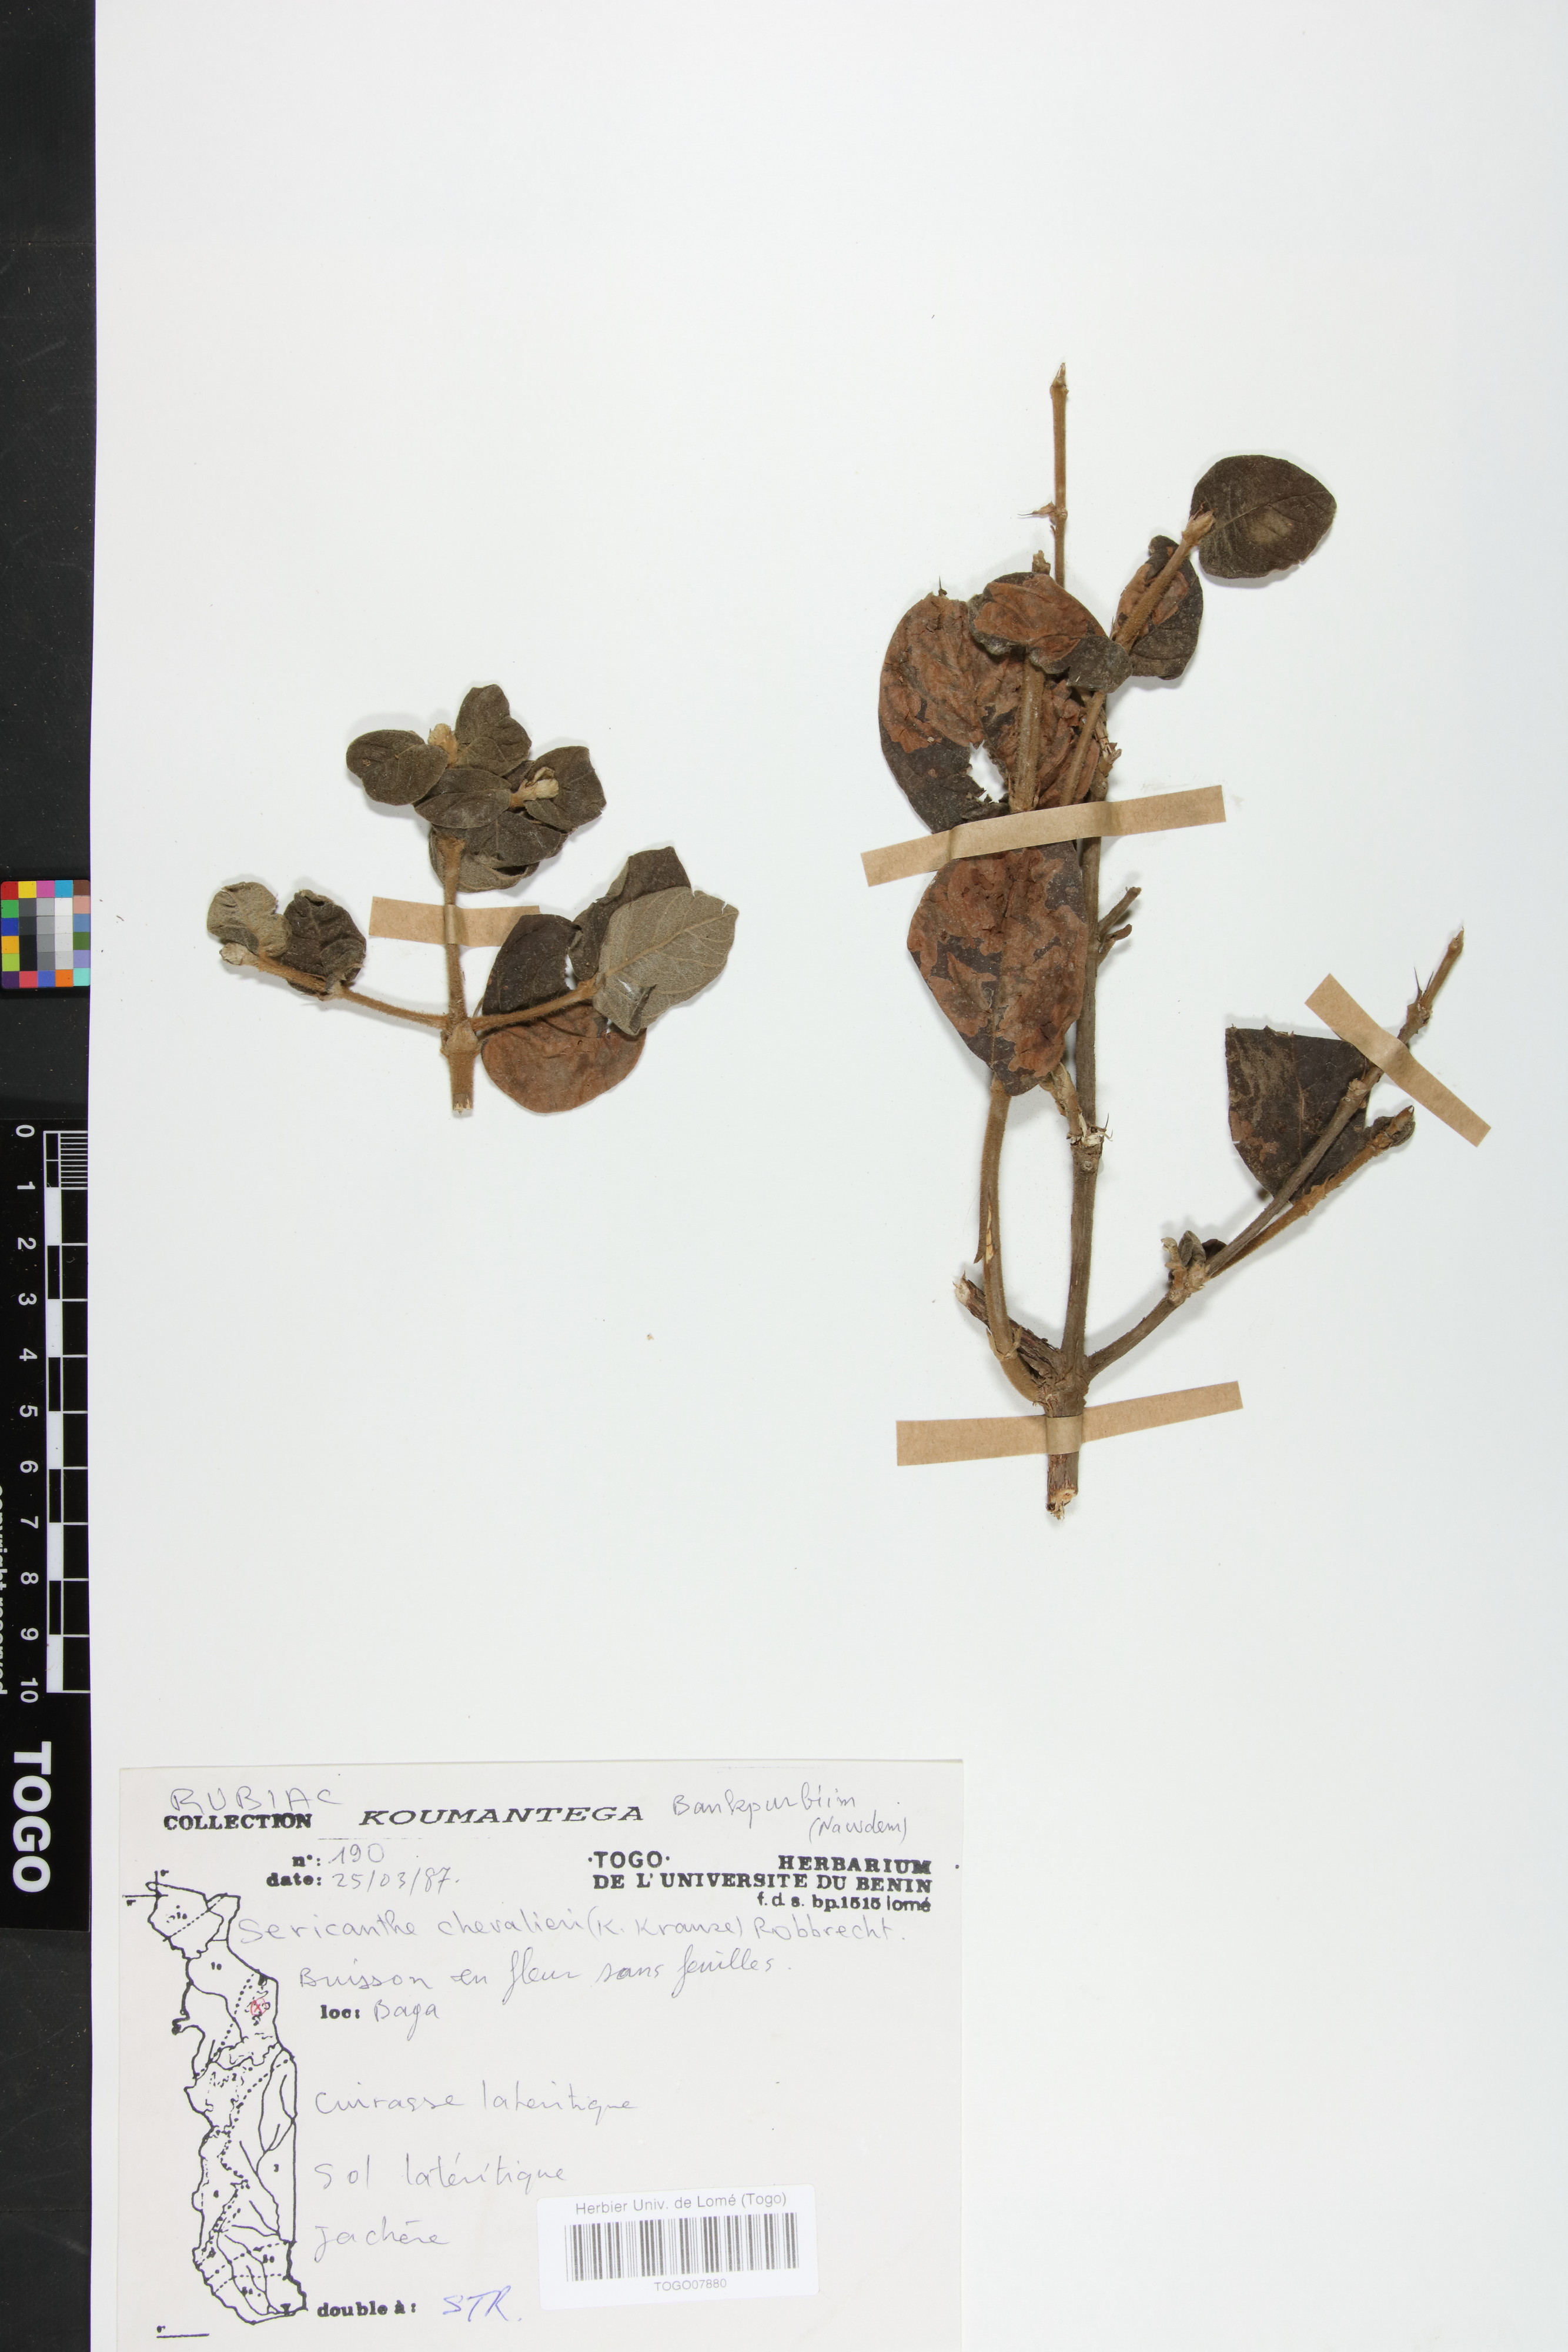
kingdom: Plantae
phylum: Tracheophyta
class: Magnoliopsida
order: Gentianales
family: Rubiaceae
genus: Sericanthe
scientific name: Sericanthe chevalieri
